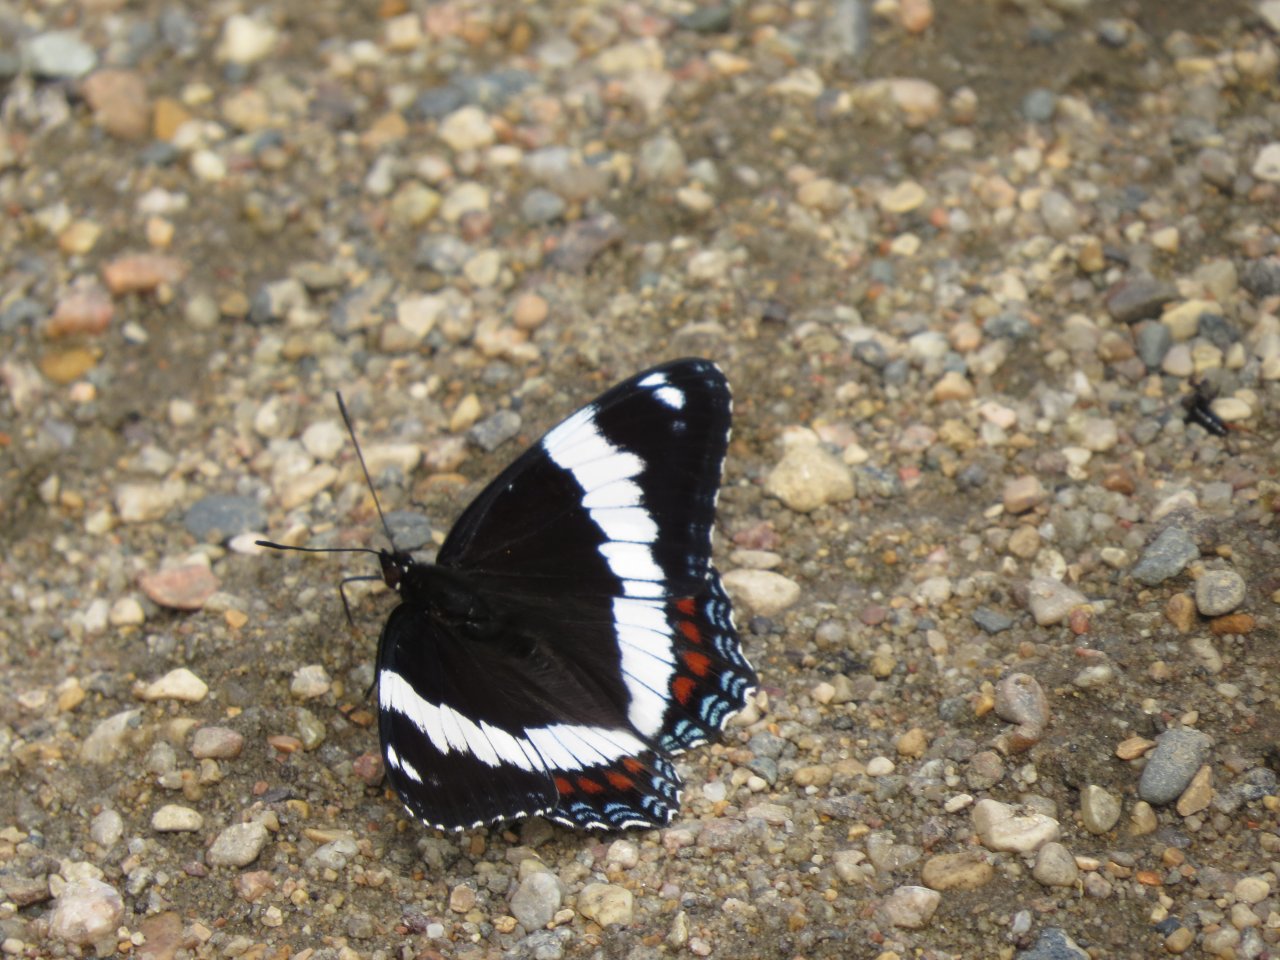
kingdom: Animalia
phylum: Arthropoda
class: Insecta
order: Lepidoptera
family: Nymphalidae
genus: Limenitis
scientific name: Limenitis arthemis
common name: Red-spotted Admiral
